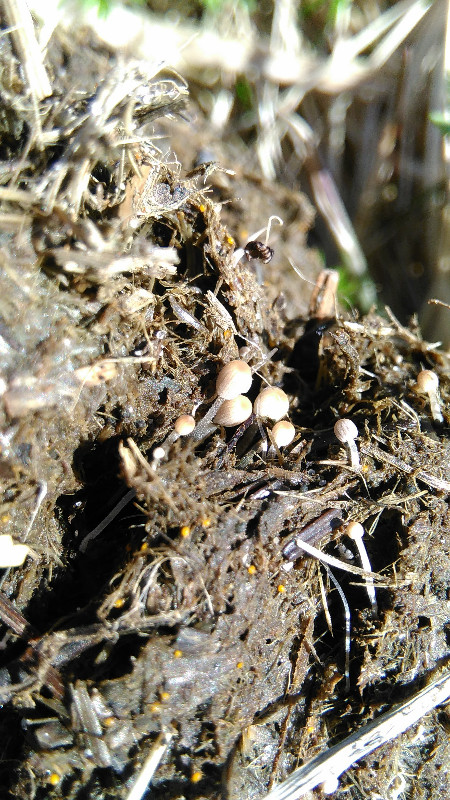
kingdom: Fungi
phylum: Basidiomycota
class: Agaricomycetes
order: Agaricales
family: Psathyrellaceae
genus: Coprinellus
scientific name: Coprinellus
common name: blækhat
